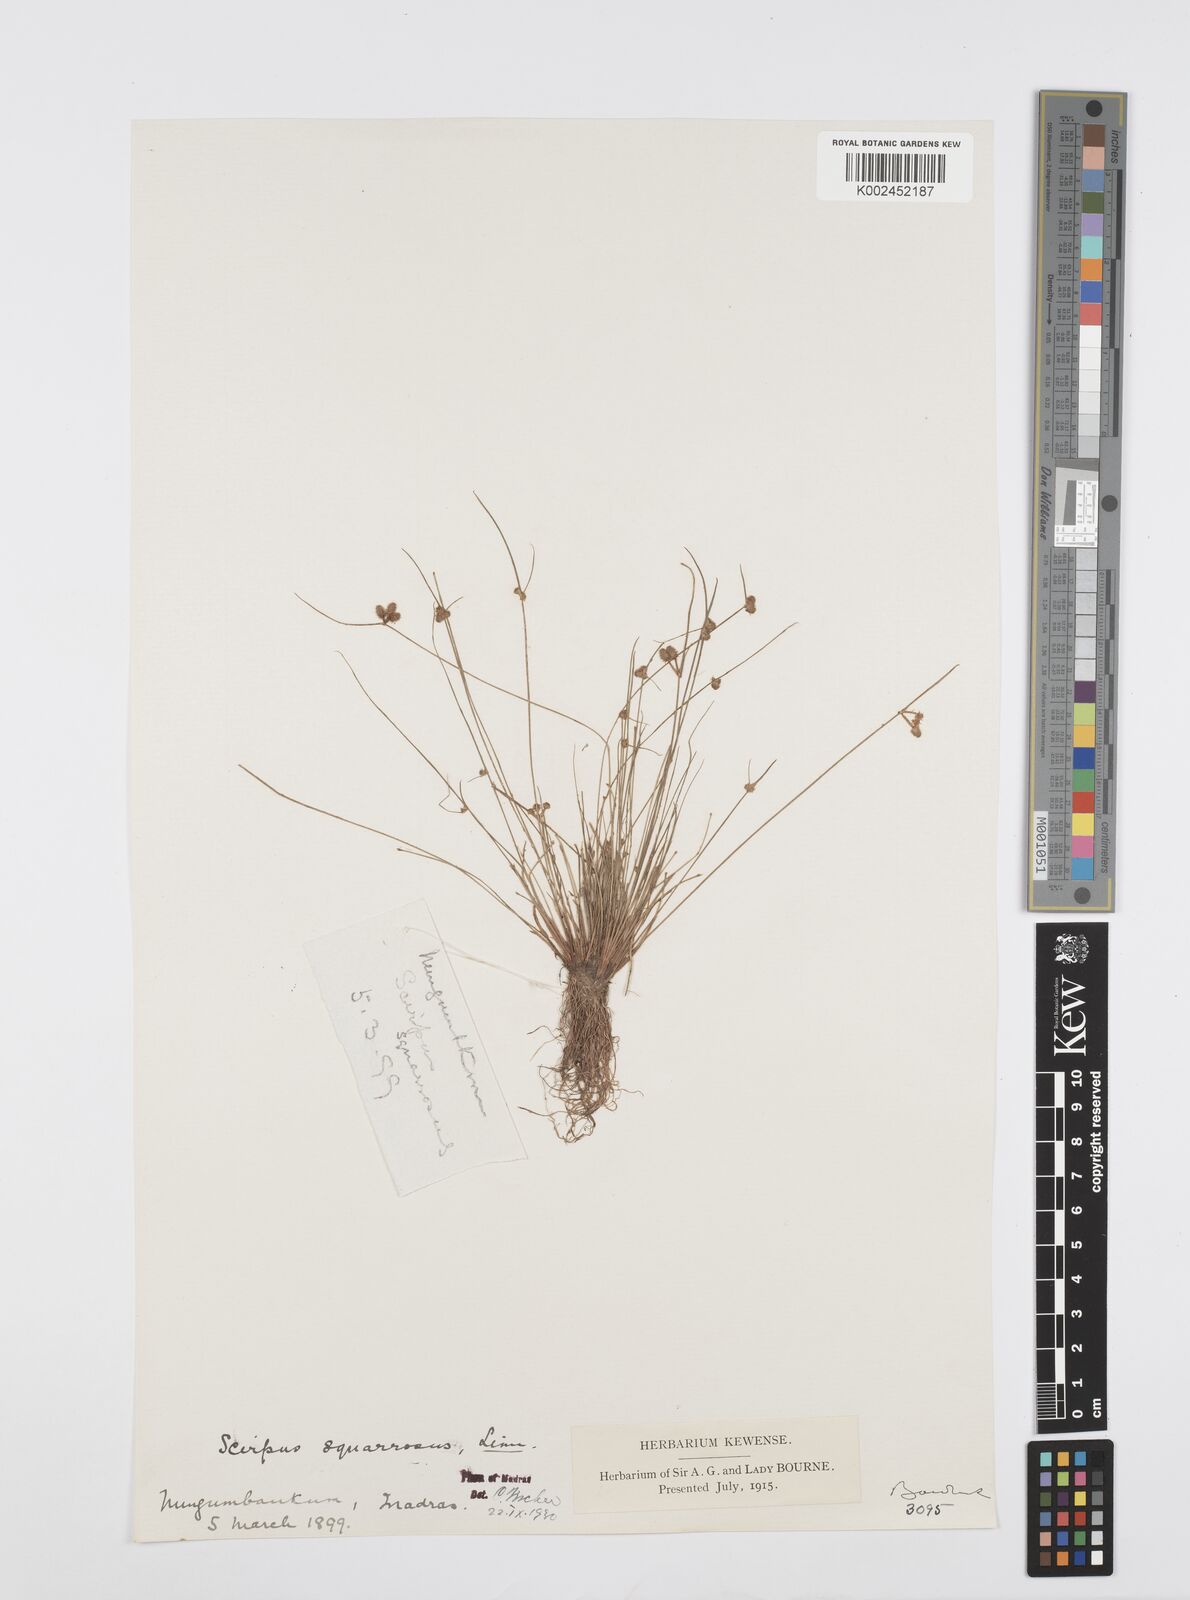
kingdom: Plantae
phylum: Tracheophyta
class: Liliopsida
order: Poales
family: Cyperaceae
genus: Cyperus
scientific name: Cyperus squarrosus
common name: Awned cyperus
